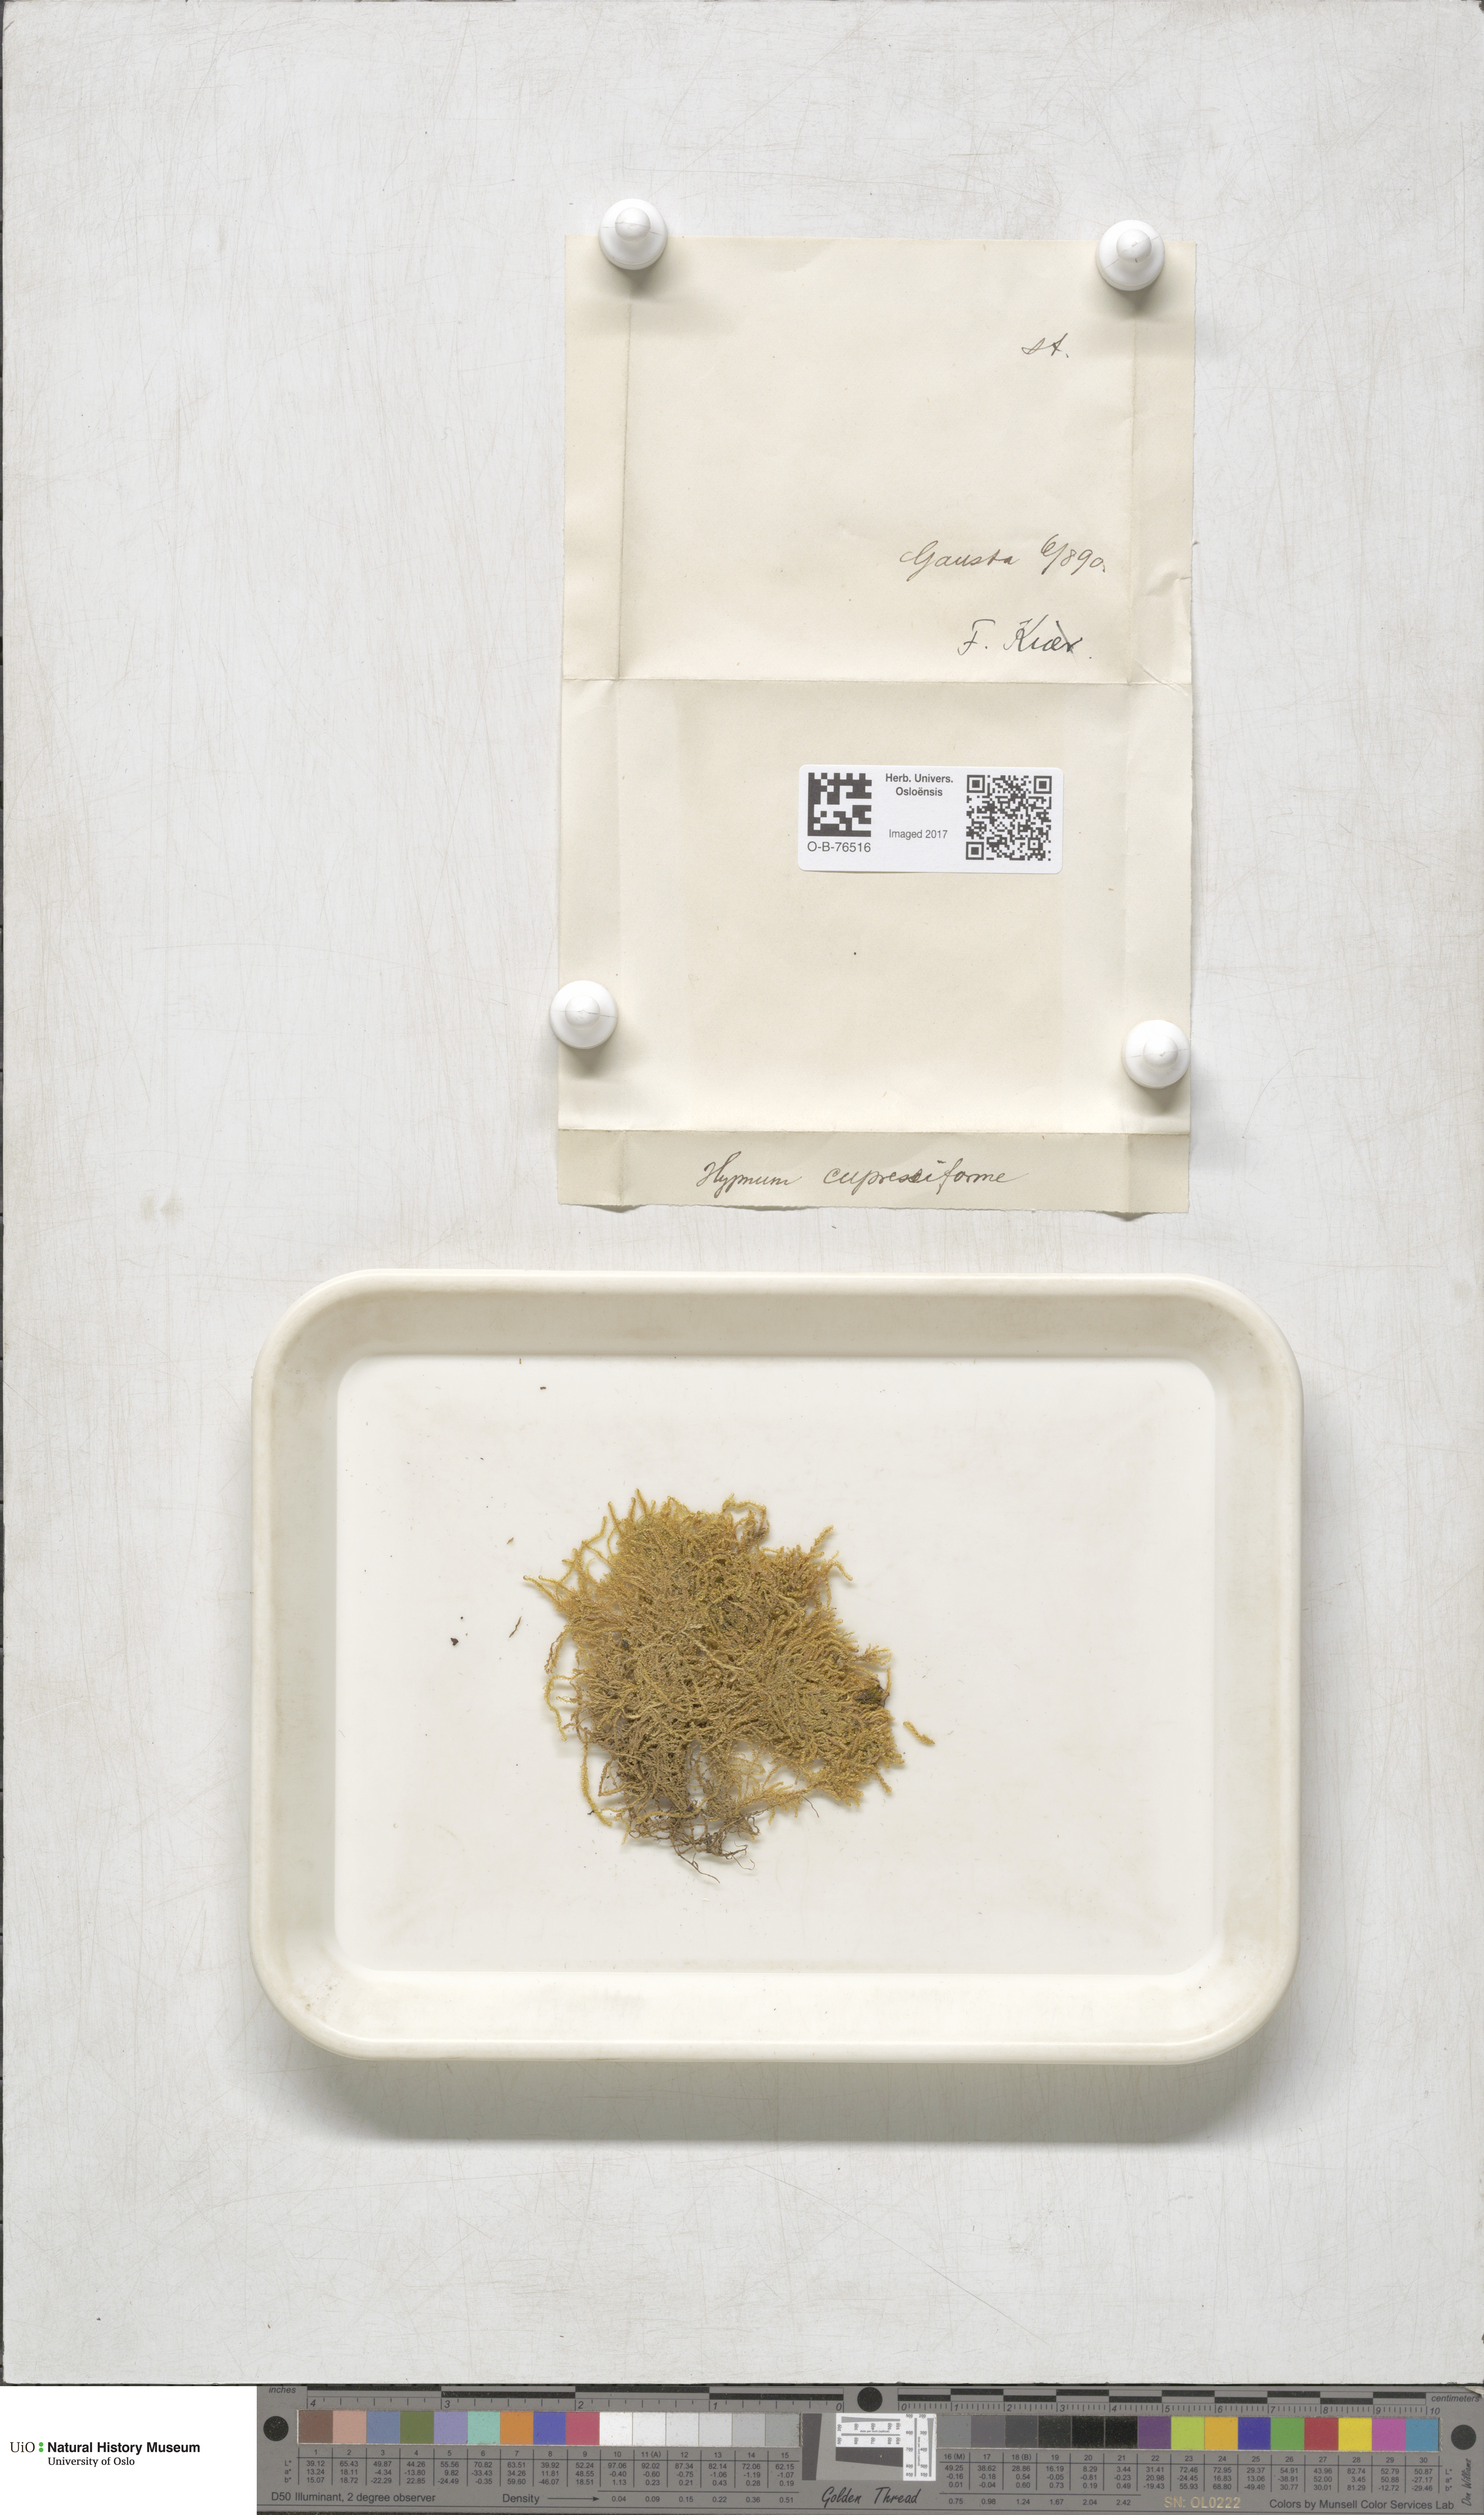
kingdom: Plantae
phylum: Bryophyta
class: Bryopsida
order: Hypnales
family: Hypnaceae
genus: Hypnum
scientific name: Hypnum cupressiforme
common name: Cypress-leaved plait-moss
